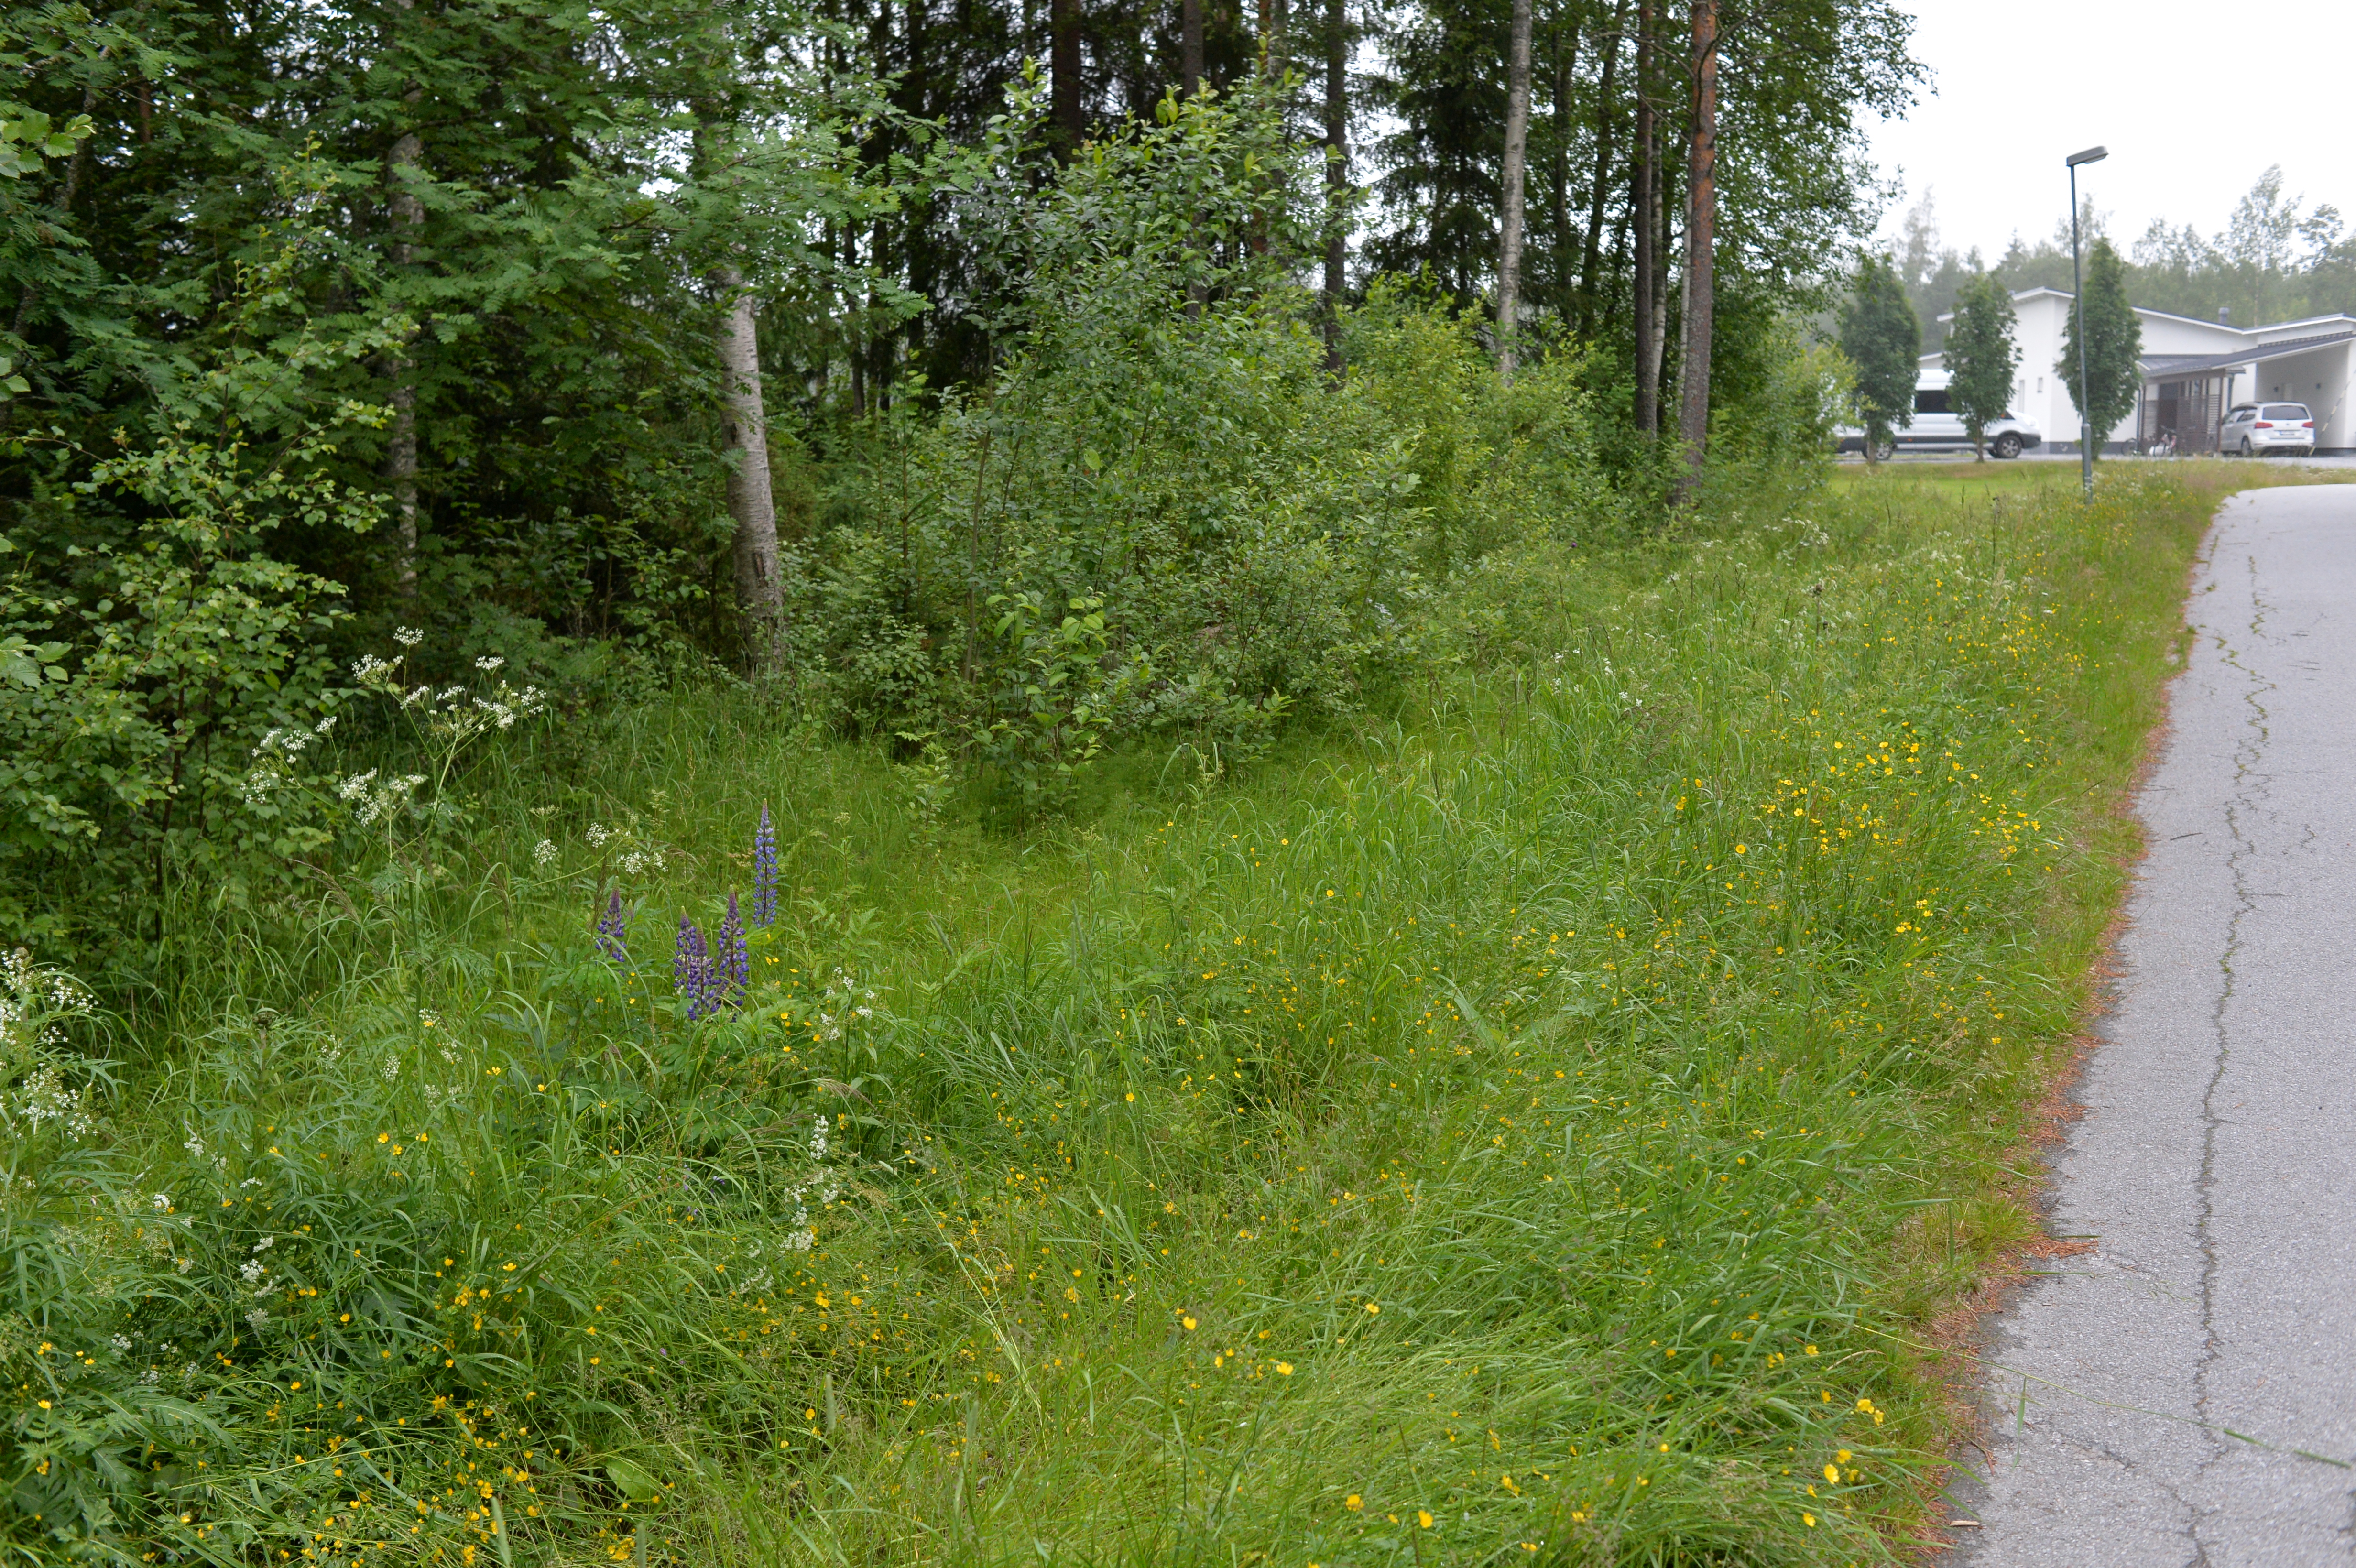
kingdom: Plantae
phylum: Tracheophyta
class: Magnoliopsida
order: Fabales
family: Fabaceae
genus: Lupinus
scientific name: Lupinus polyphyllus
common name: Garden lupin
